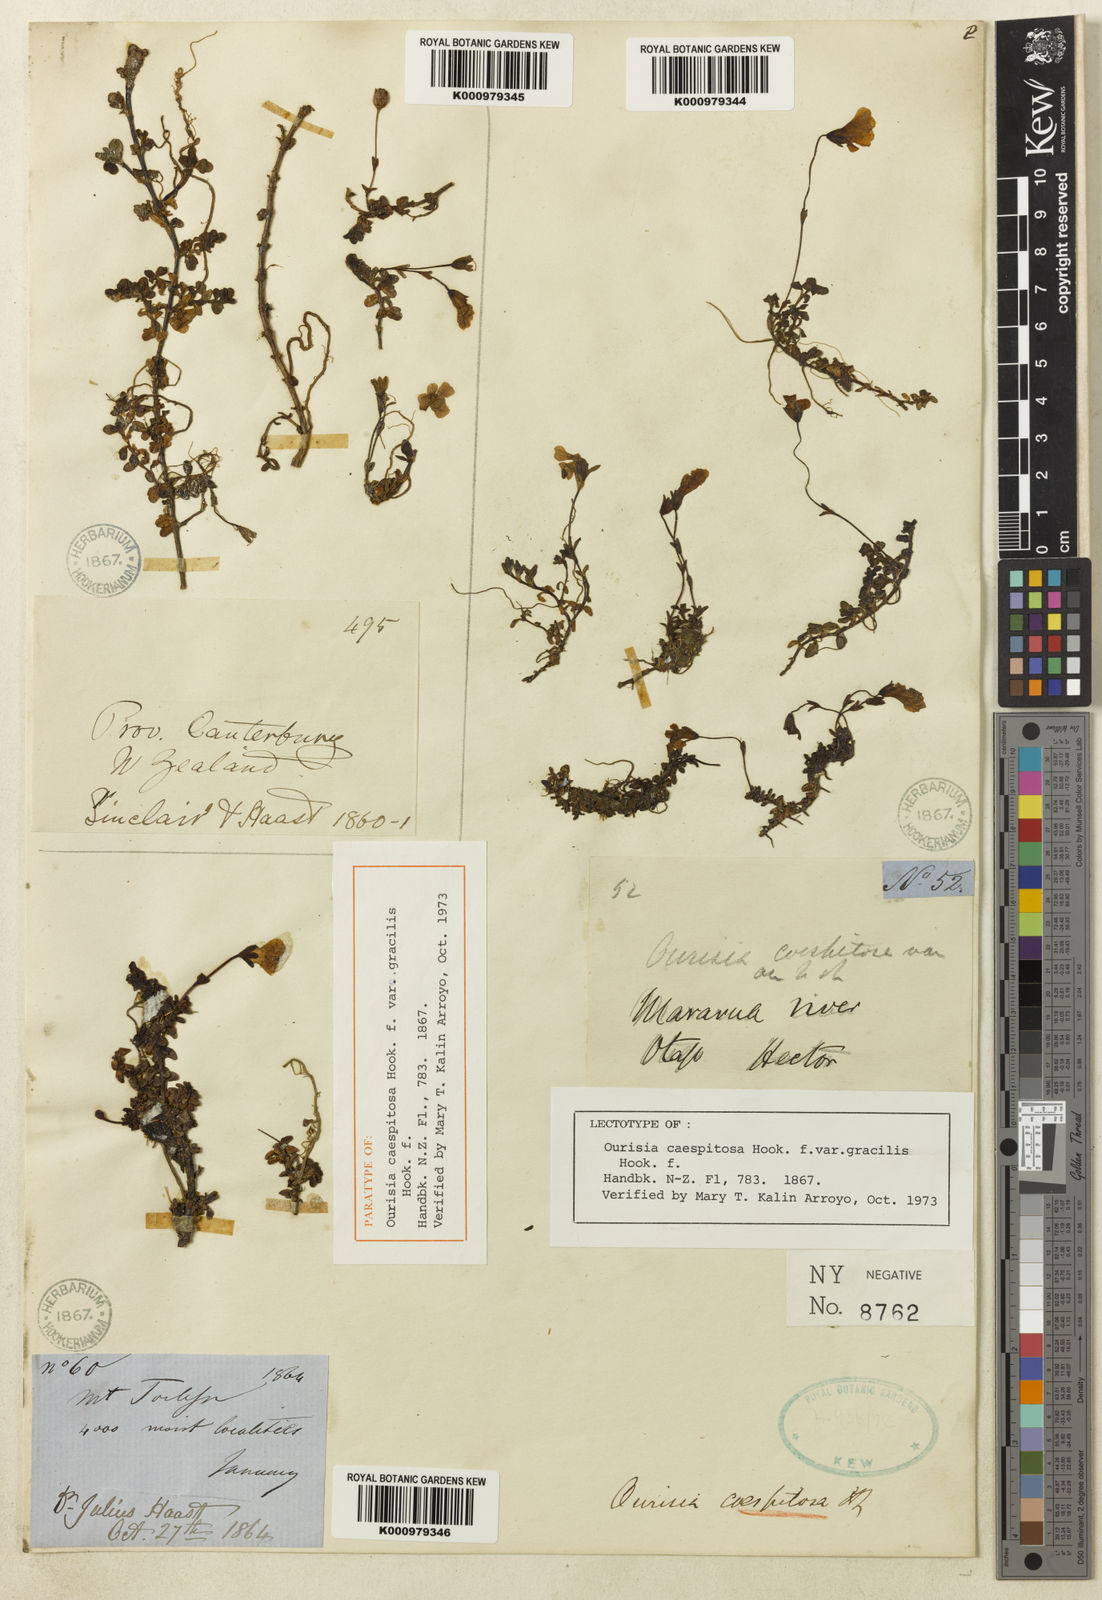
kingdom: Plantae
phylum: Tracheophyta
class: Magnoliopsida
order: Lamiales
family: Plantaginaceae
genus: Ourisia
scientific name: Ourisia caespitosa
